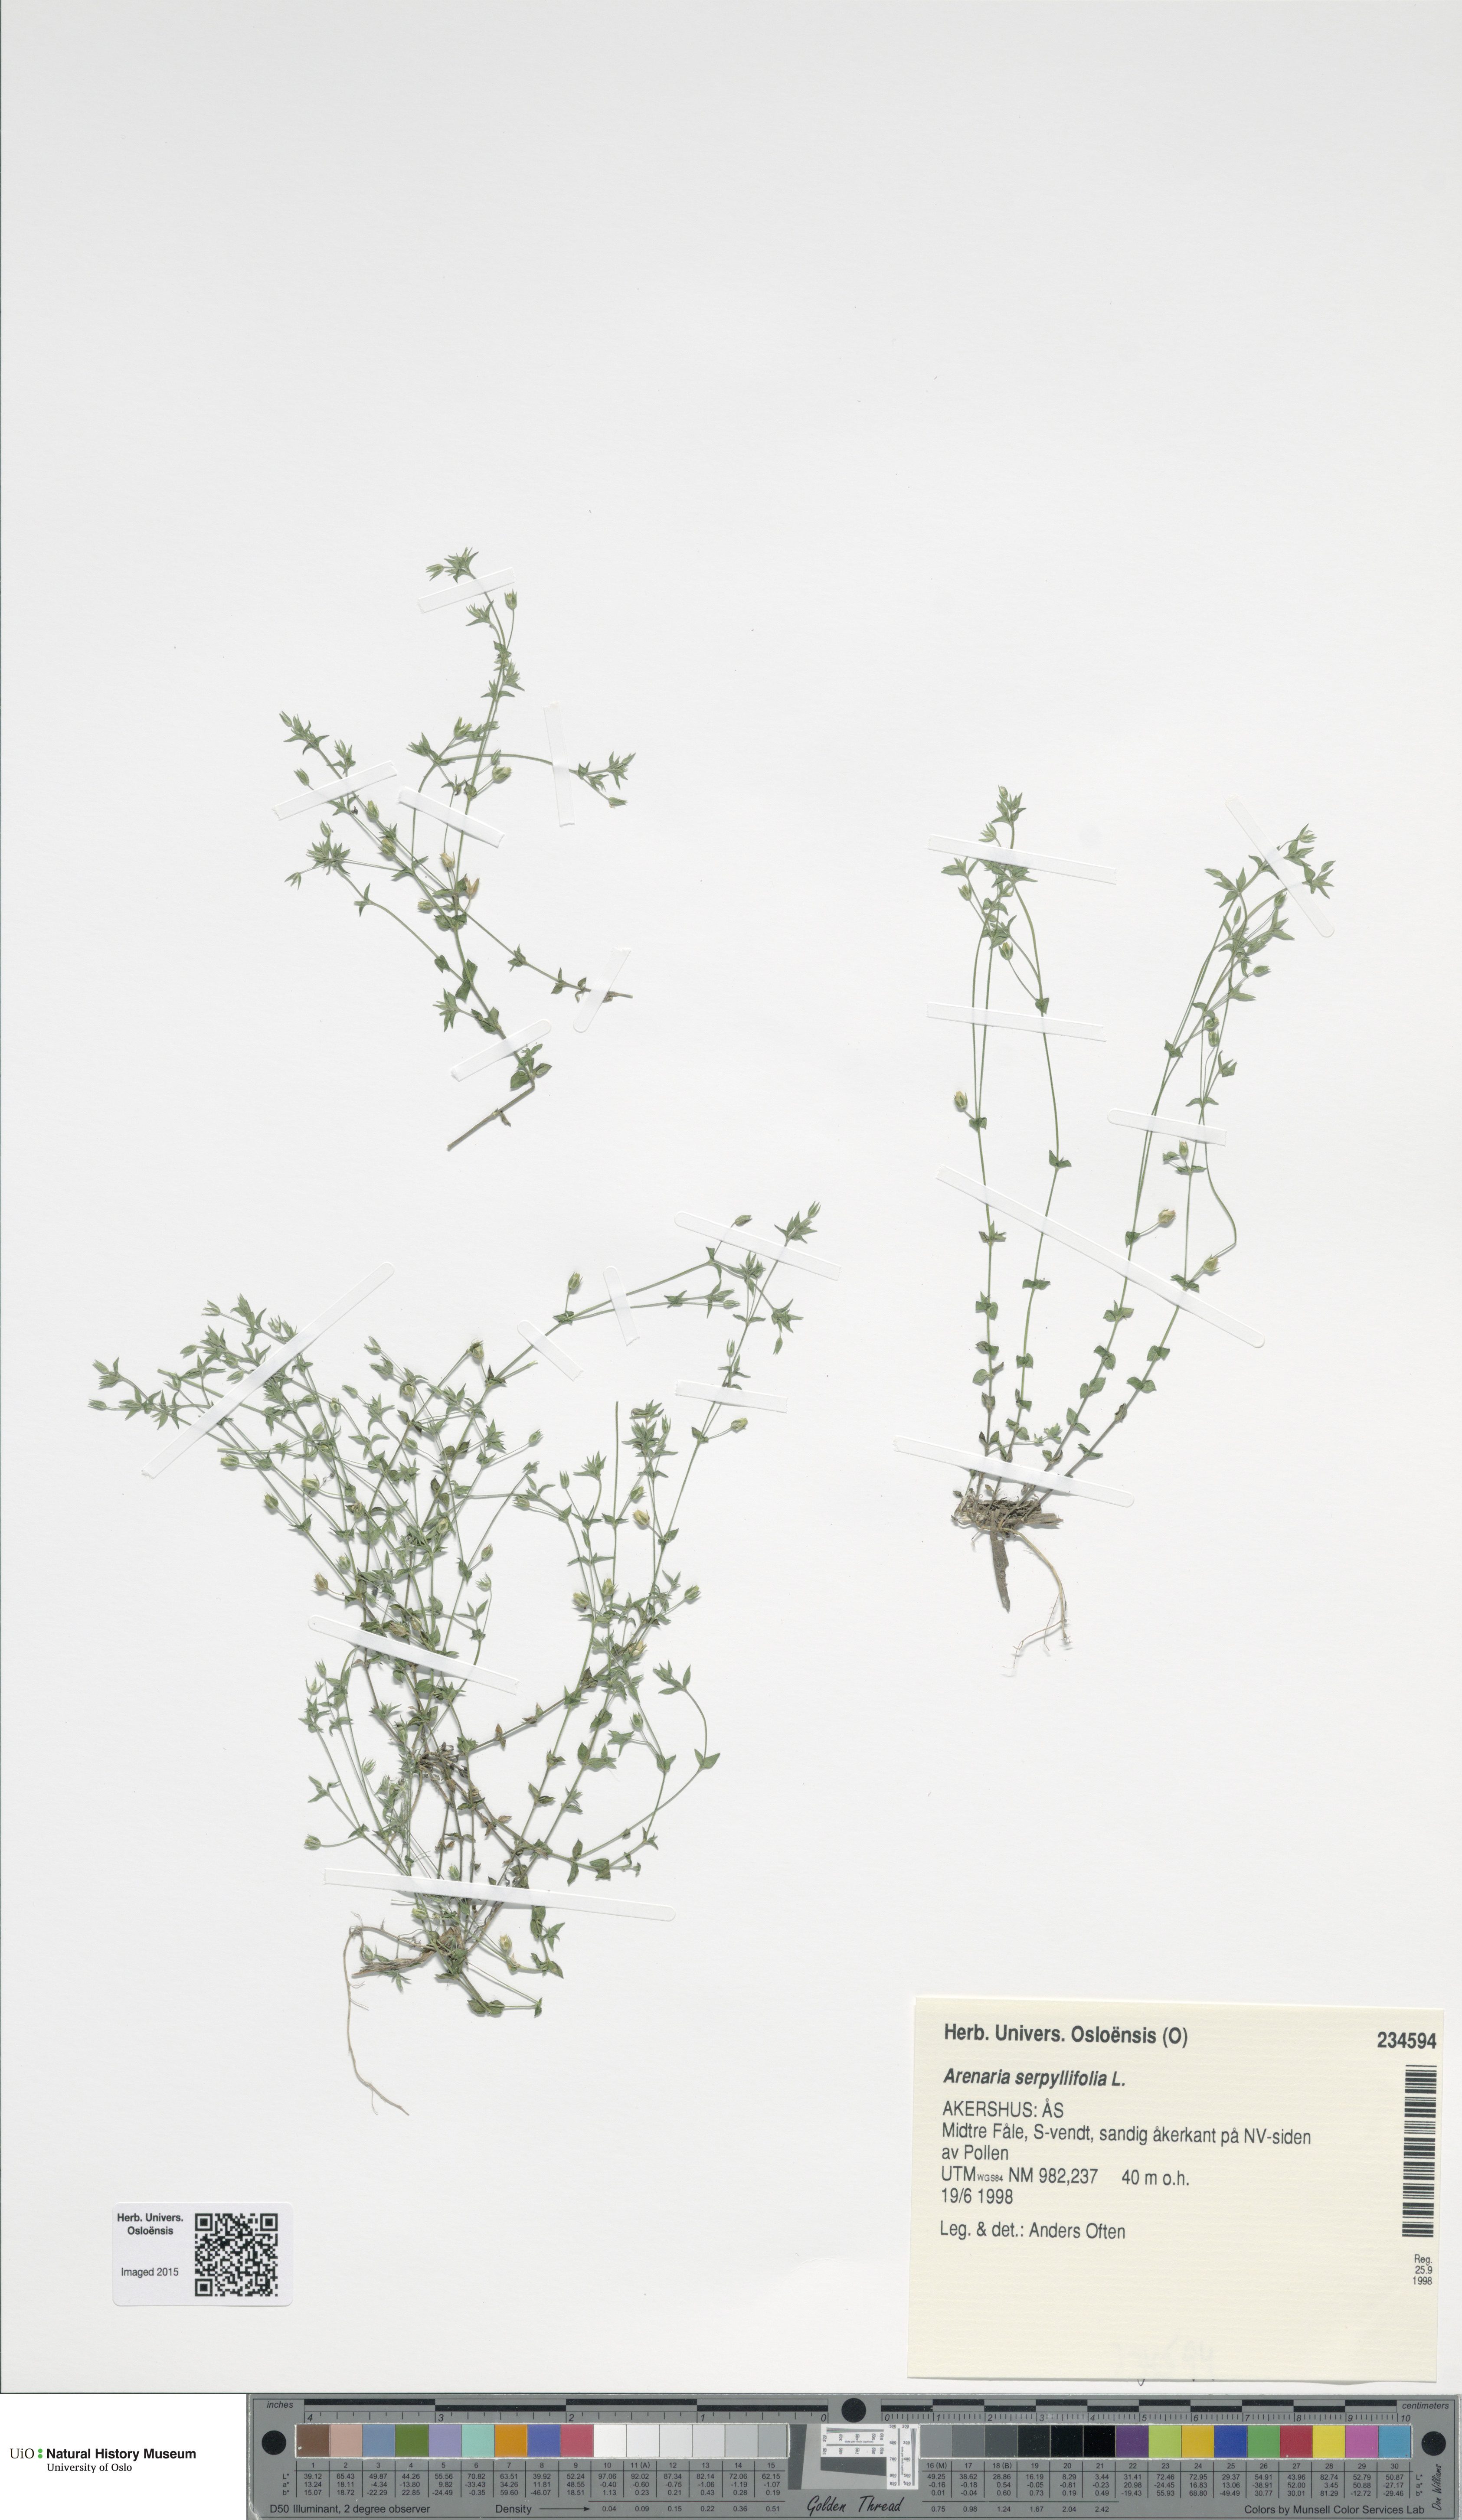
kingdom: Plantae
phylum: Tracheophyta
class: Magnoliopsida
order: Caryophyllales
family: Caryophyllaceae
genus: Arenaria
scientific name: Arenaria serpyllifolia
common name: Thyme-leaved sandwort
